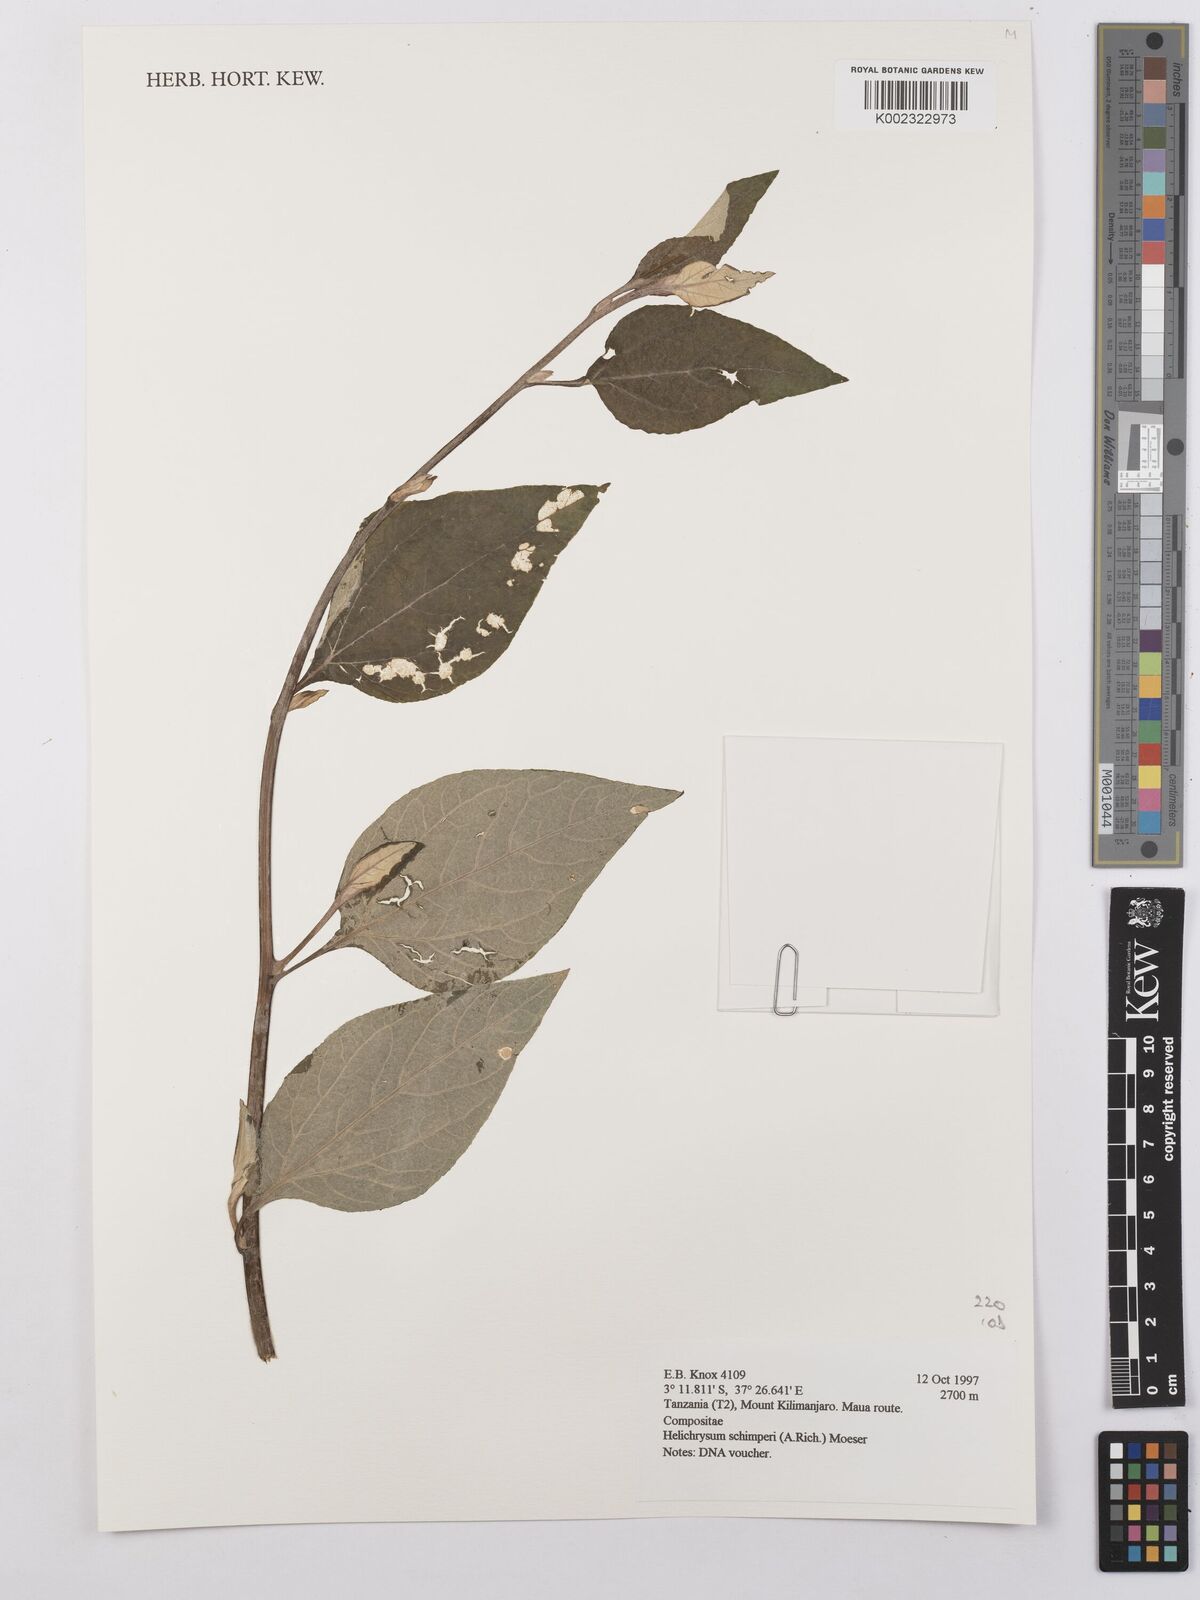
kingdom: Plantae
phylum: Tracheophyta
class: Magnoliopsida
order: Asterales
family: Asteraceae
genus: Helichrysum
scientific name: Helichrysum schimperi
